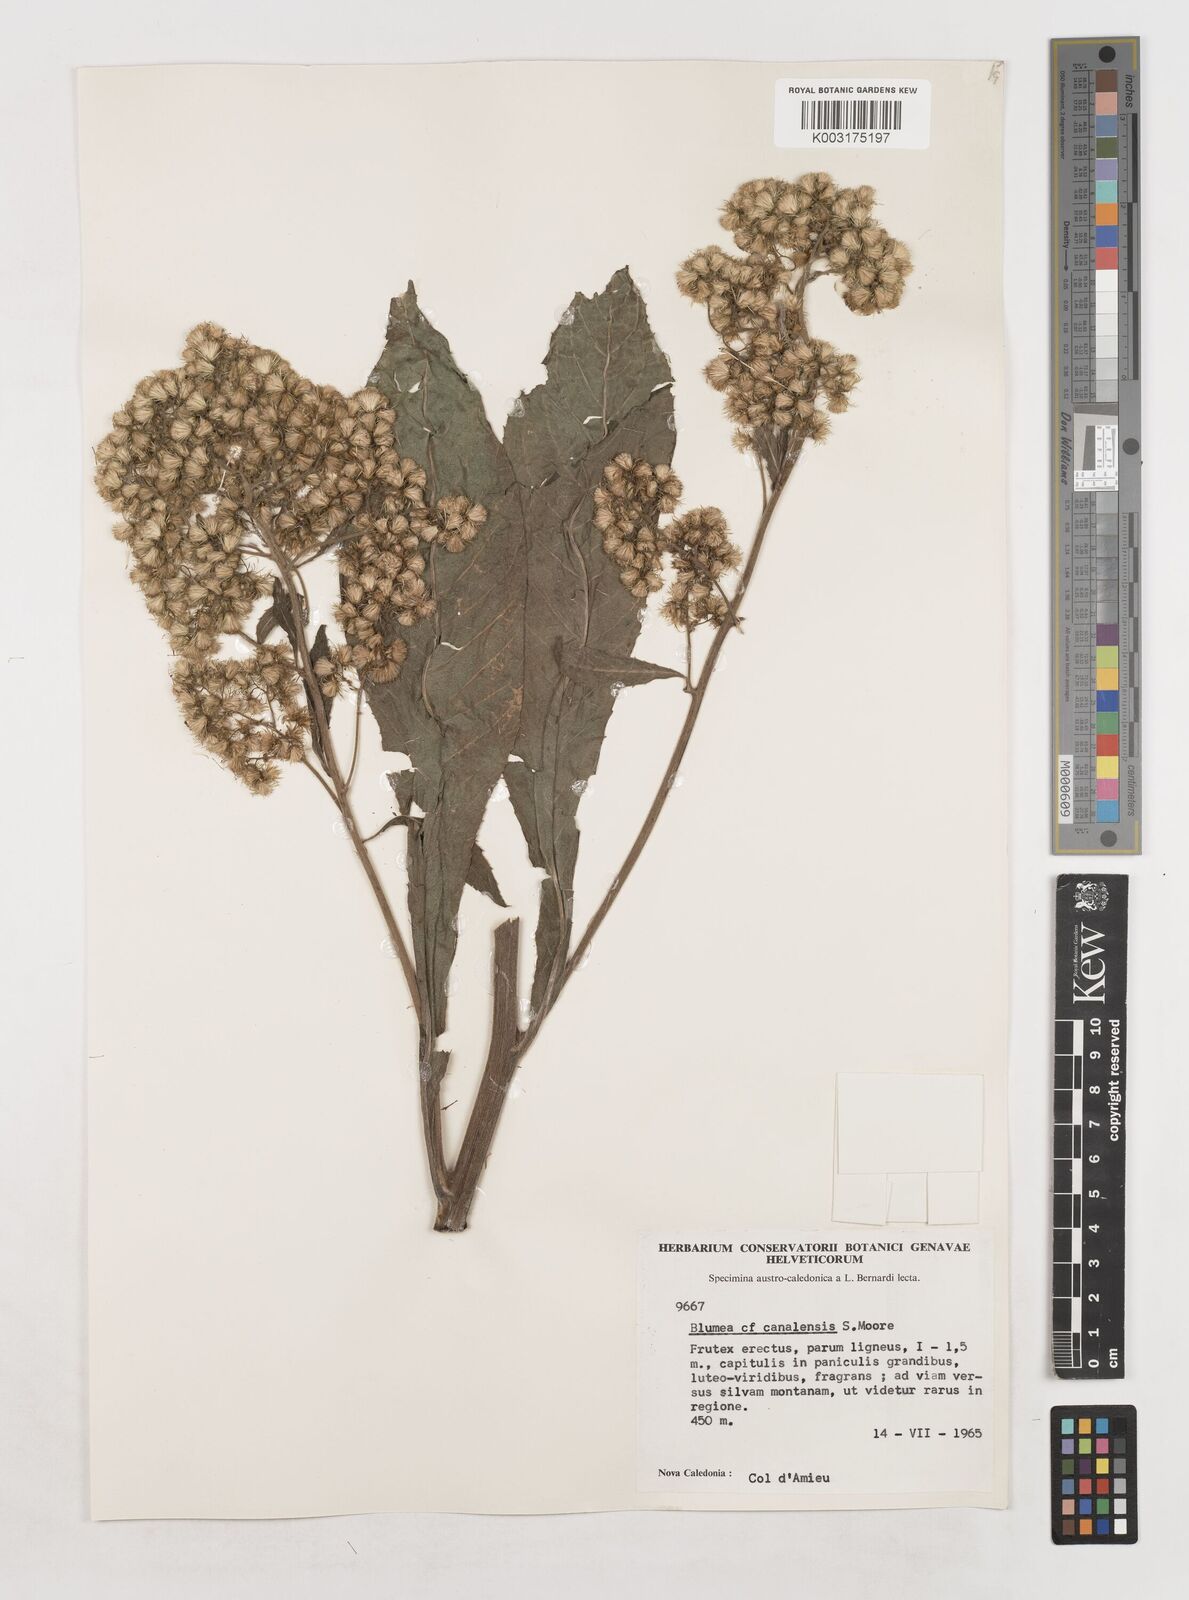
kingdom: Plantae
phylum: Tracheophyta
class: Magnoliopsida
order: Asterales
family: Asteraceae
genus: Blumea
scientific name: Blumea densiflora
